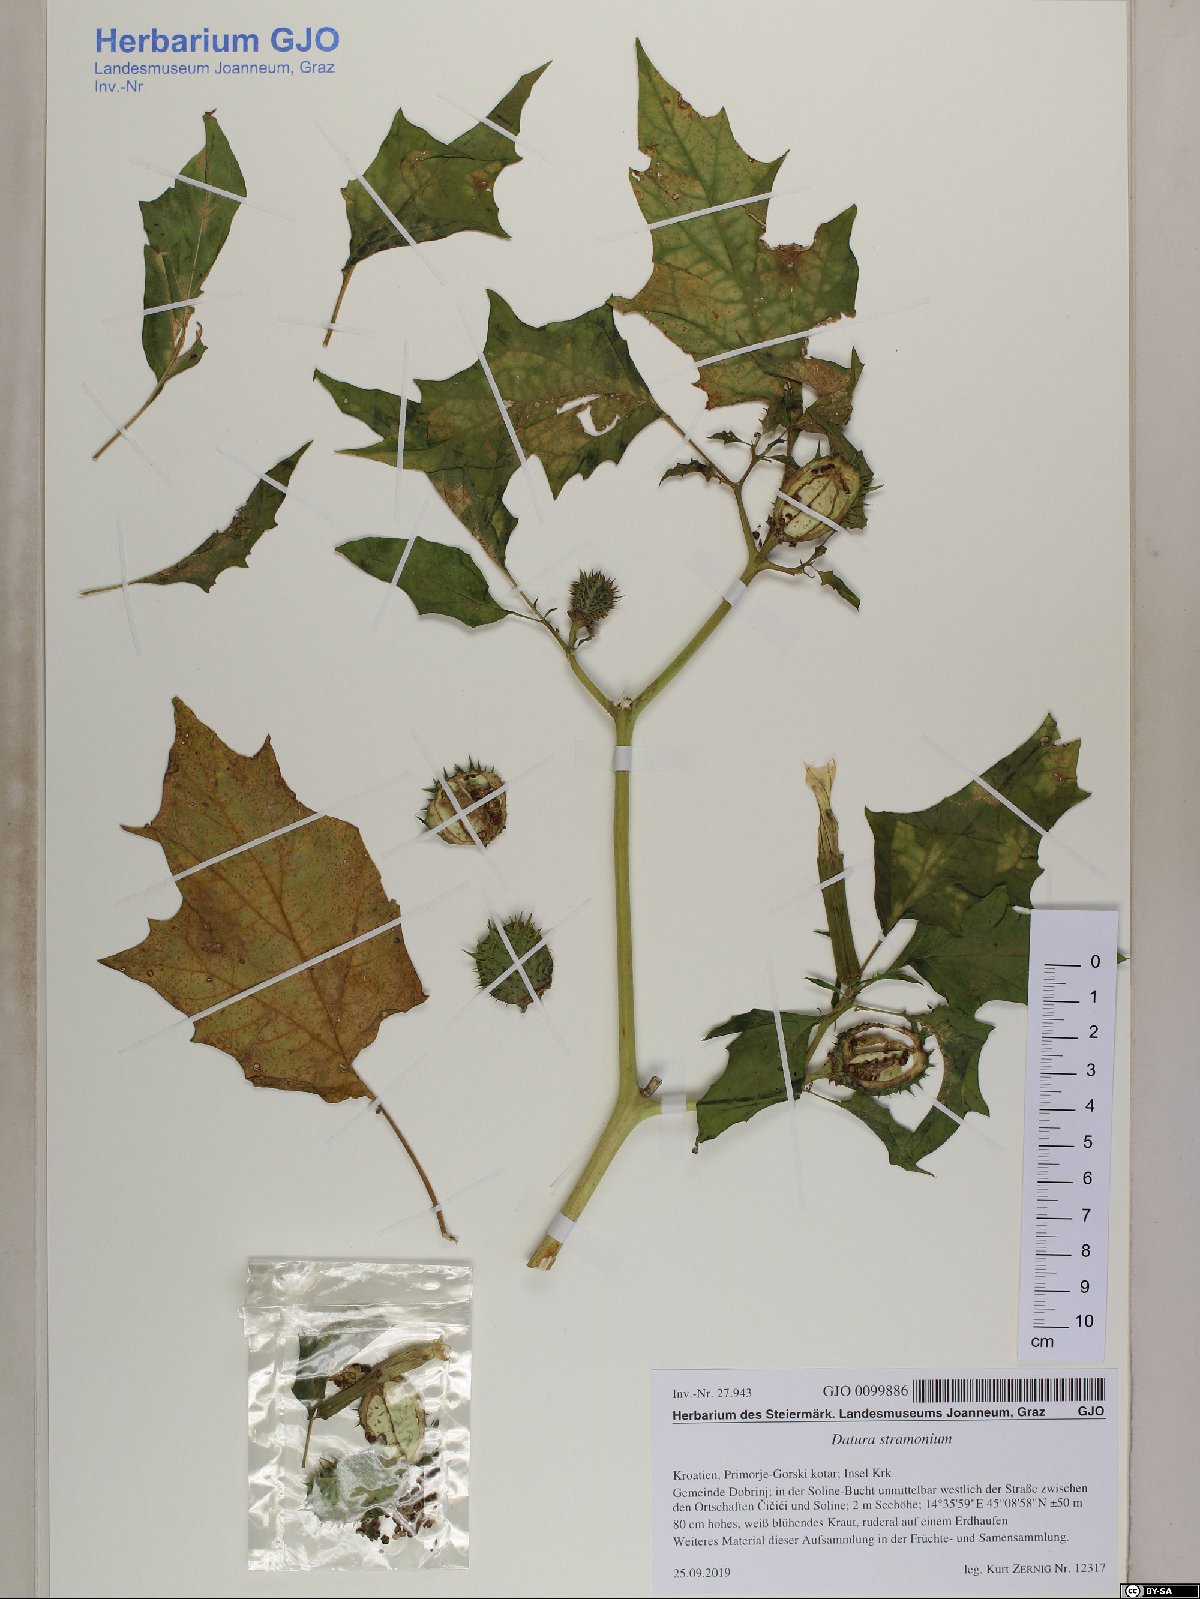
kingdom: Plantae
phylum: Tracheophyta
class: Magnoliopsida
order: Solanales
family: Solanaceae
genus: Datura
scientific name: Datura stramonium
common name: Thorn-apple
